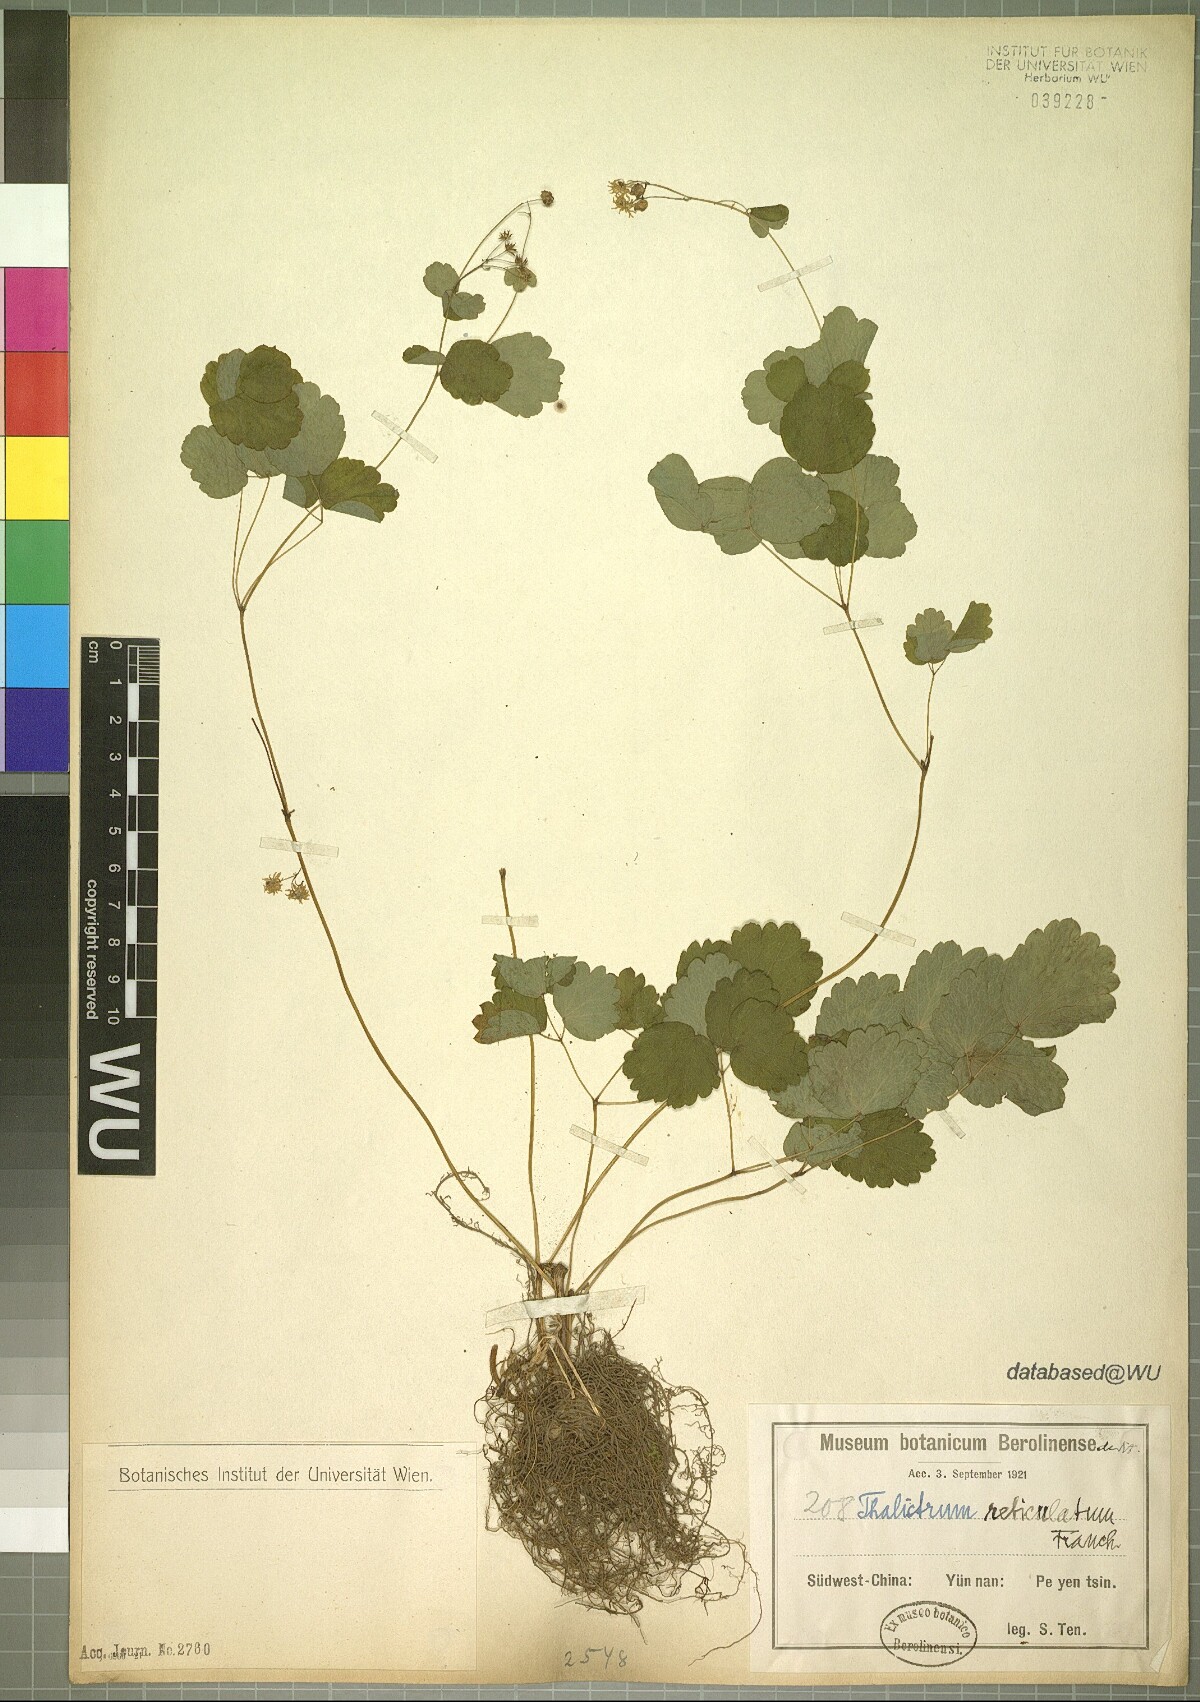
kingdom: Plantae
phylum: Tracheophyta
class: Magnoliopsida
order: Ranunculales
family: Ranunculaceae
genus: Thalictrum
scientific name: Thalictrum reticulatum
